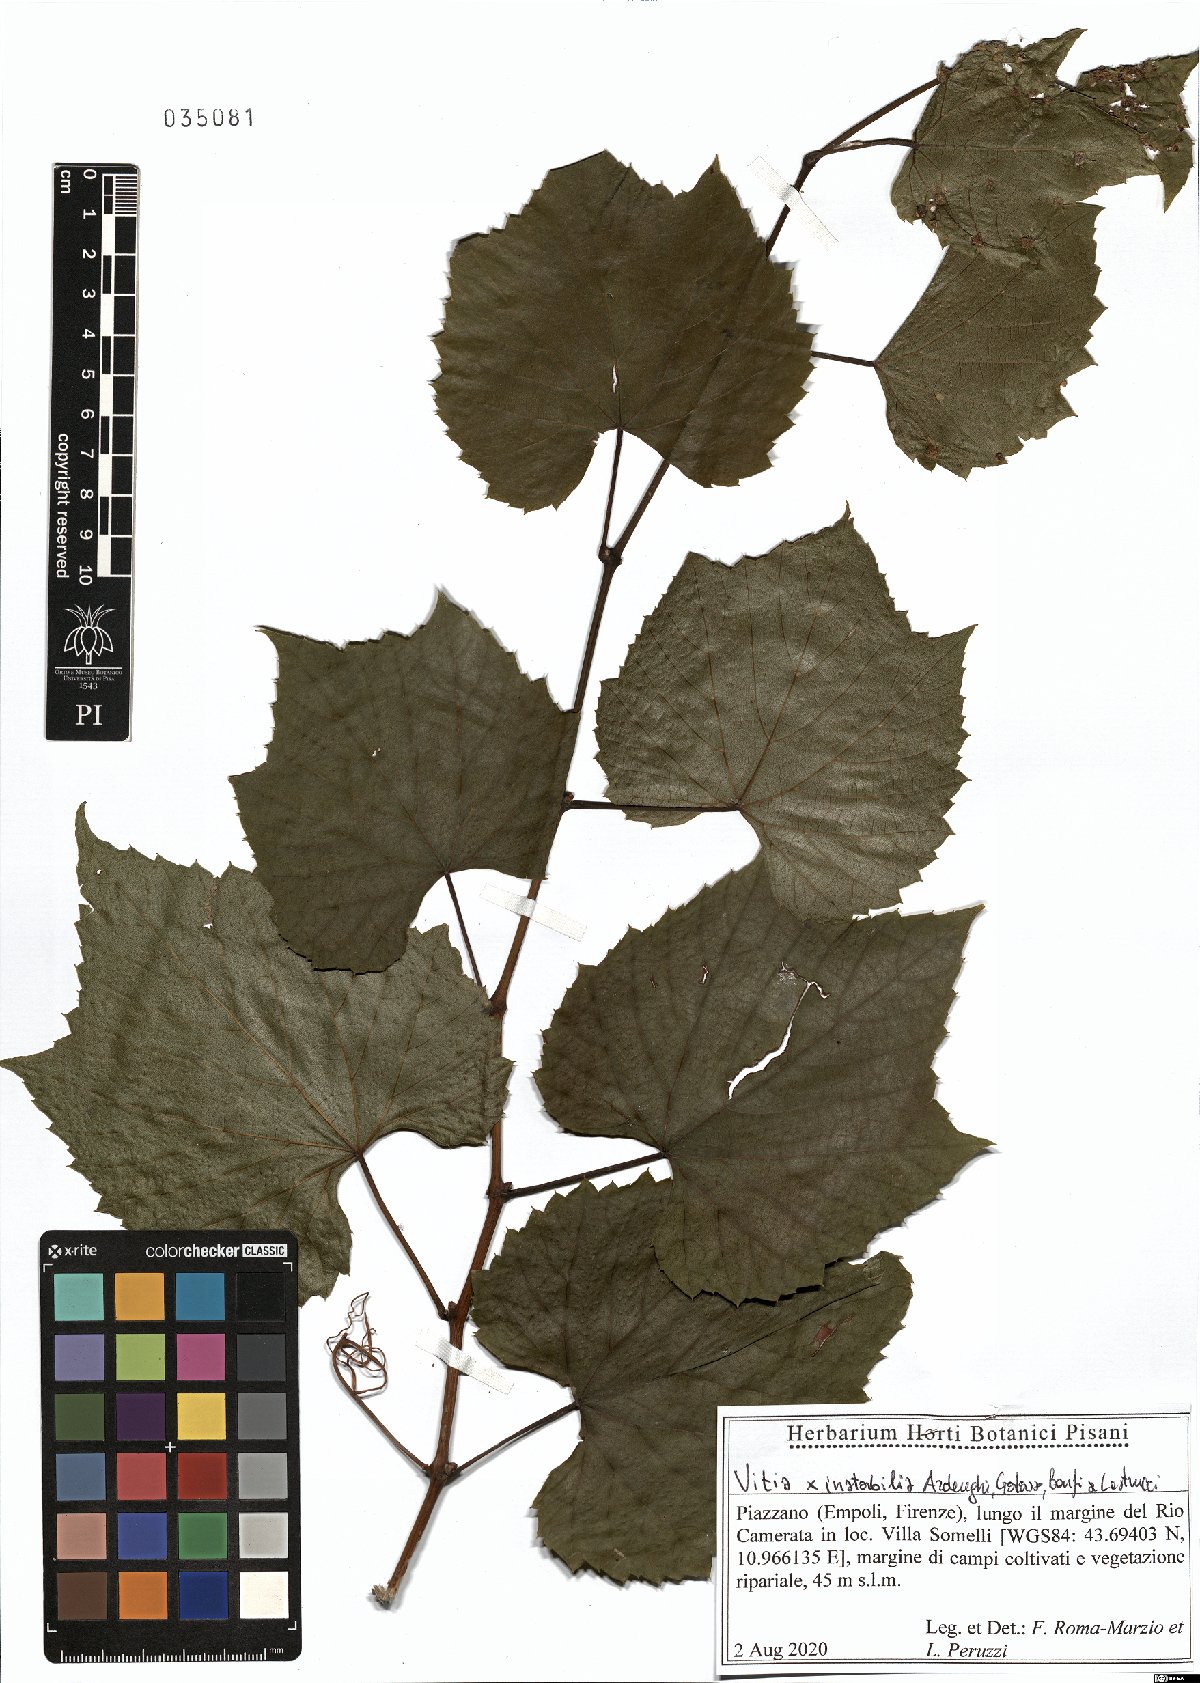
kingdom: Plantae
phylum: Tracheophyta
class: Magnoliopsida
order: Vitales
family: Vitaceae
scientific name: Vitaceae
